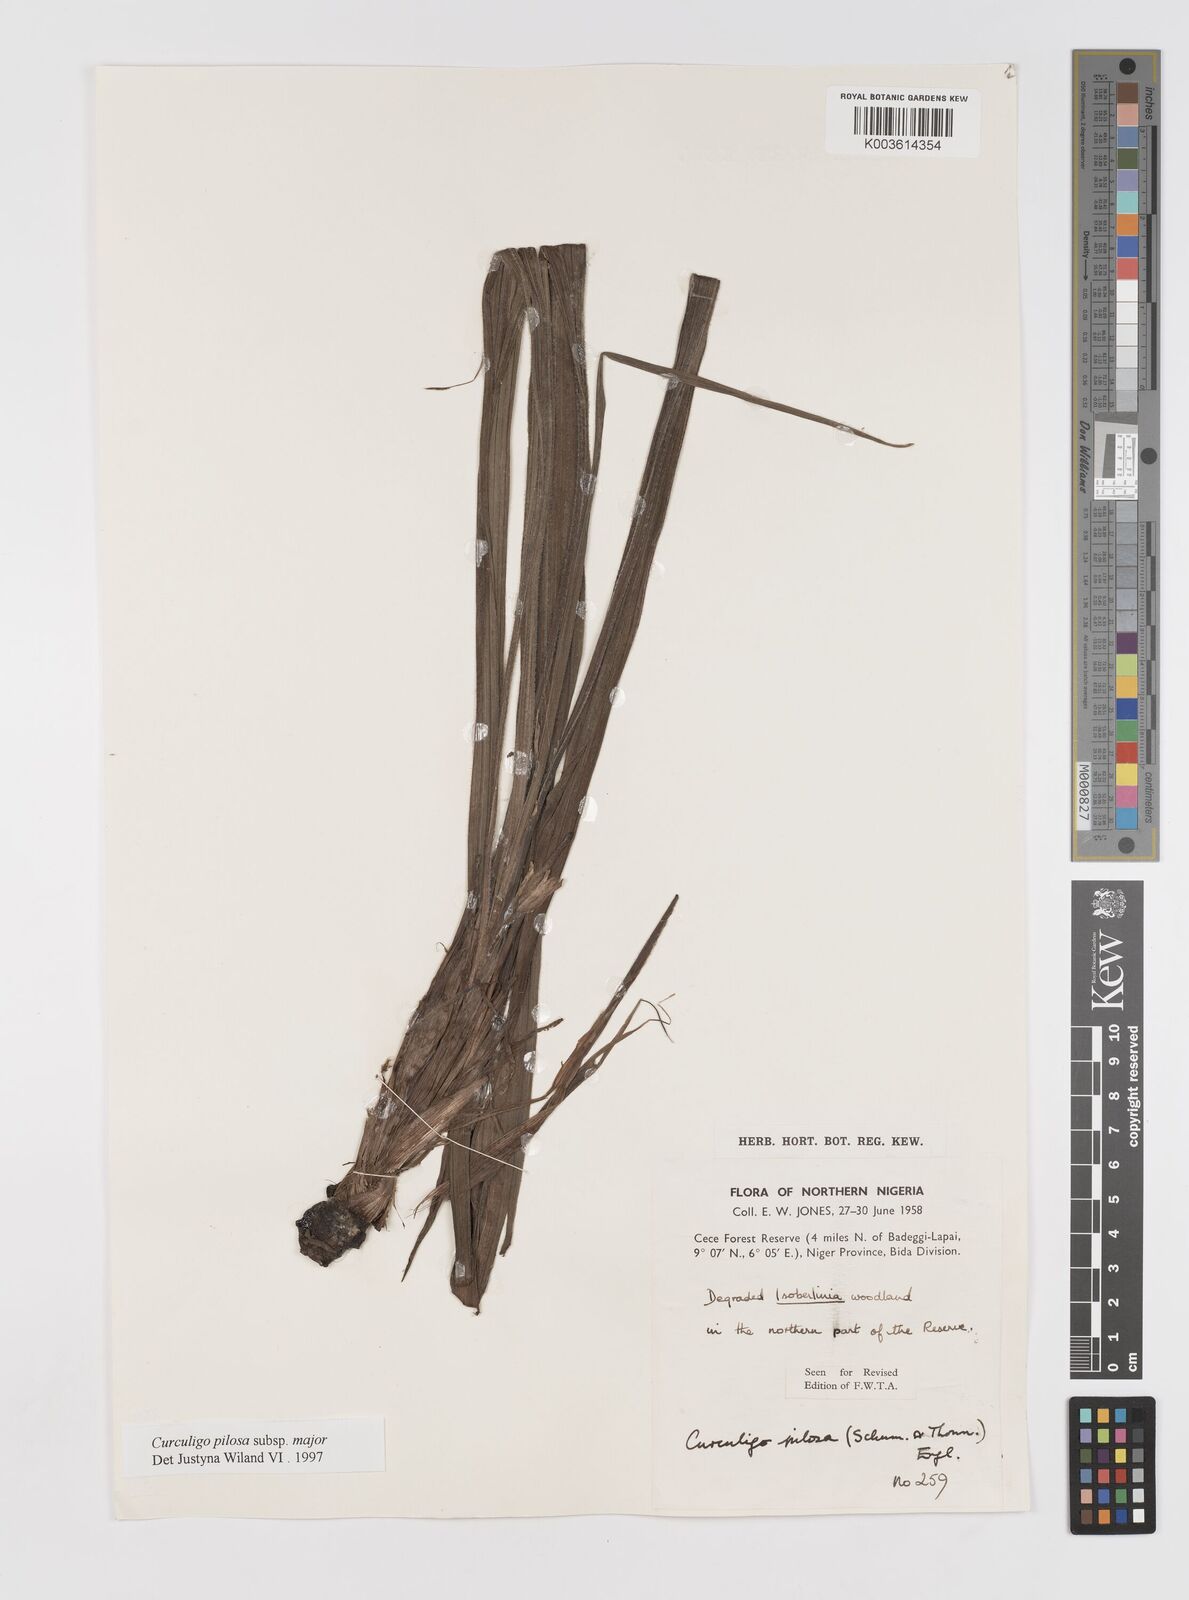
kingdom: Plantae
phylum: Tracheophyta
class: Liliopsida
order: Asparagales
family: Hypoxidaceae
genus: Curculigo
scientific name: Curculigo pilosa
